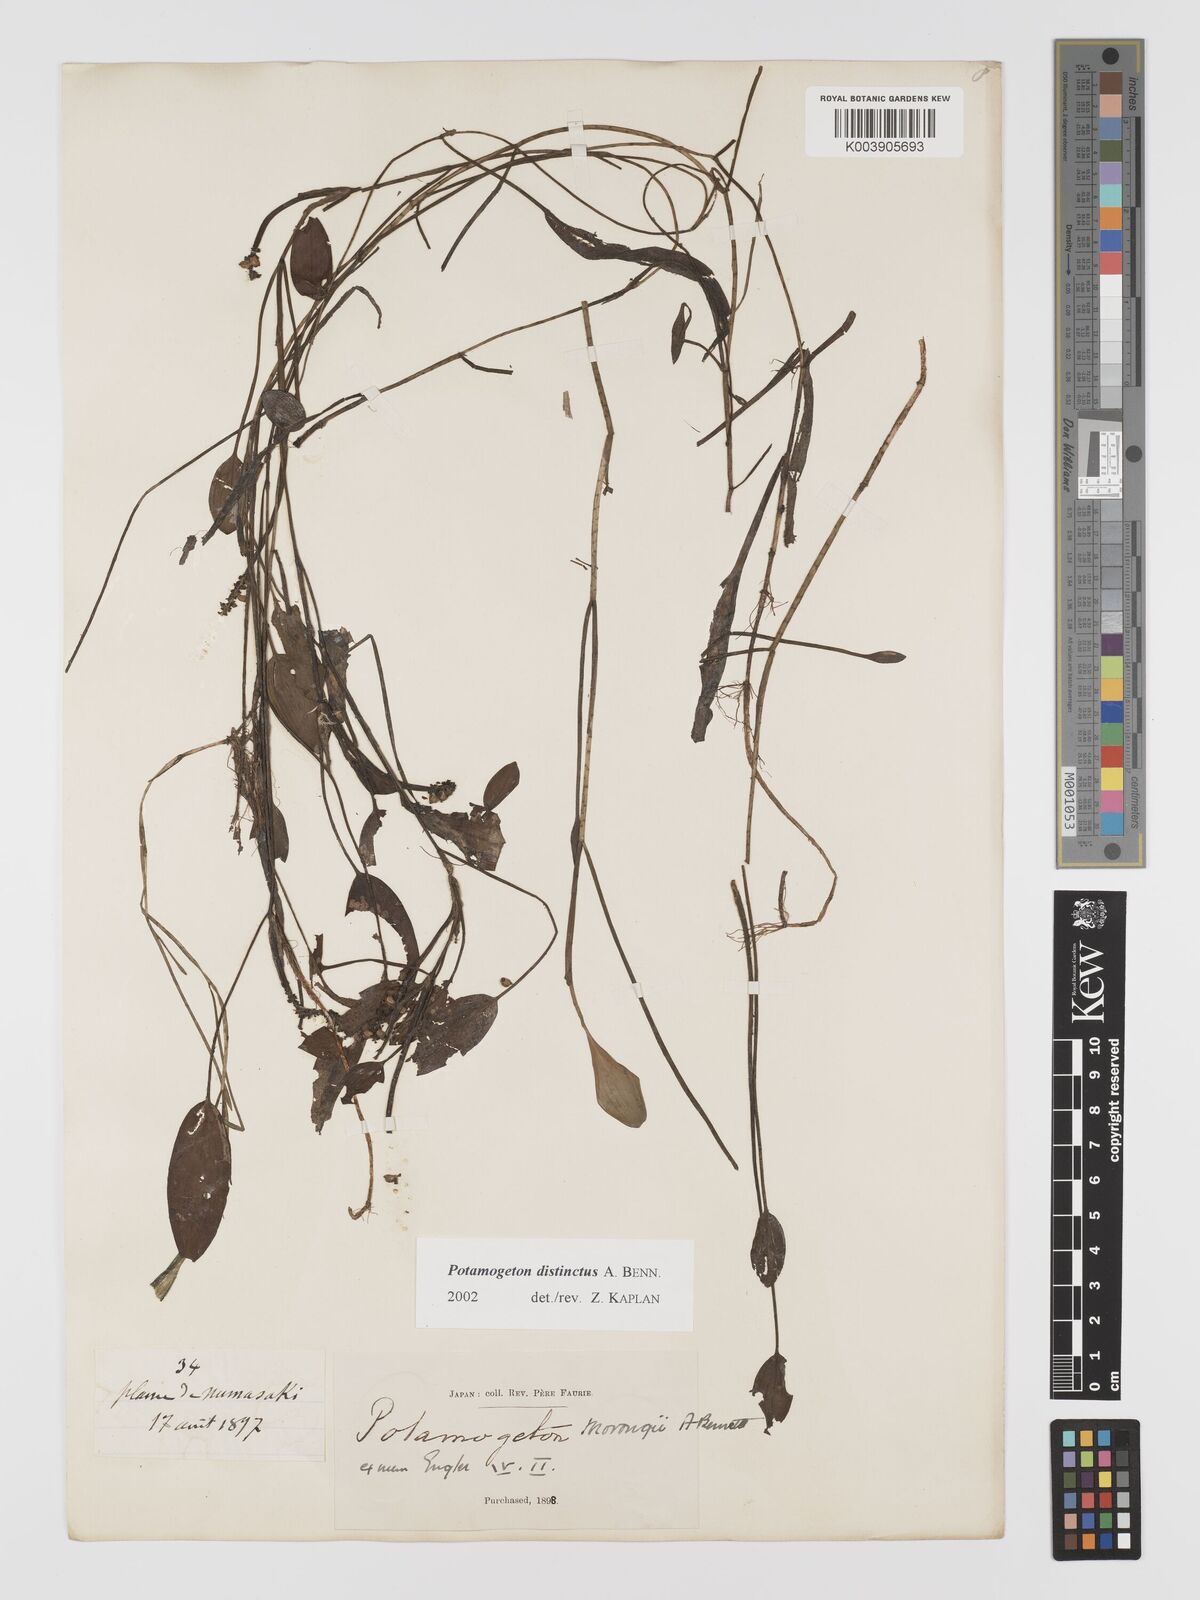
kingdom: Plantae
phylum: Tracheophyta
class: Liliopsida
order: Alismatales
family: Potamogetonaceae
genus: Potamogeton
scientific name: Potamogeton distinctus
